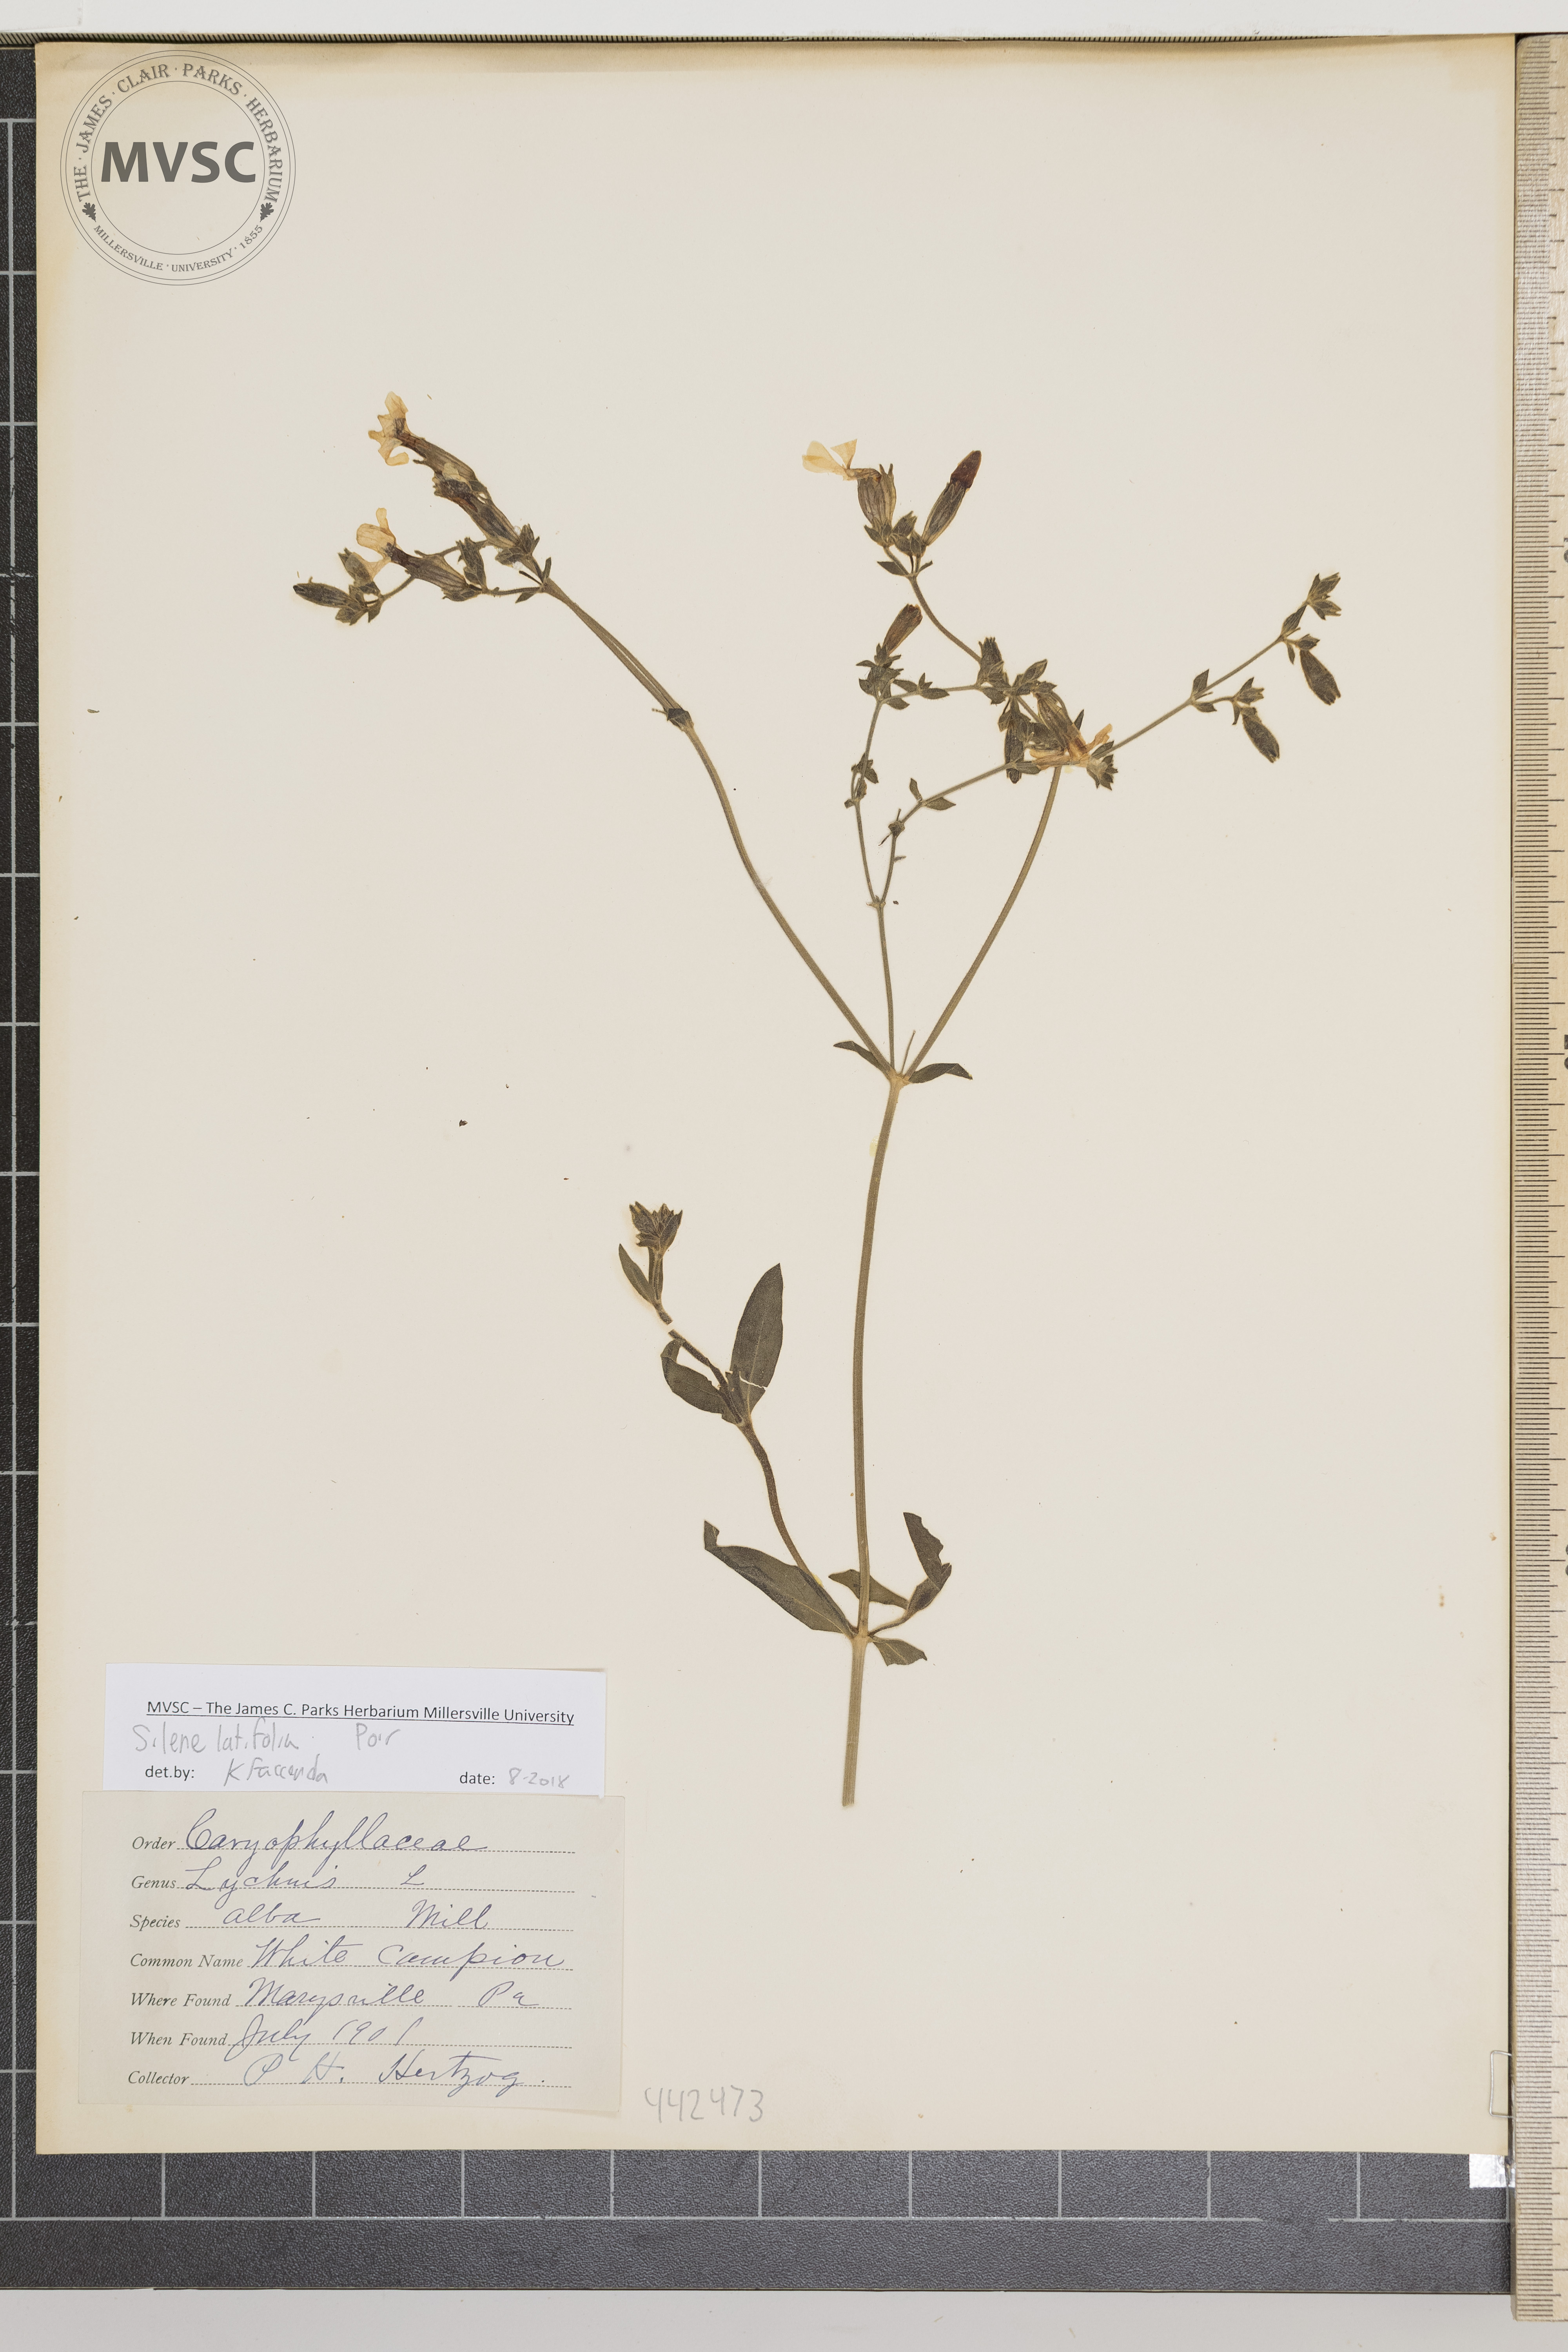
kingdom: Plantae
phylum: Tracheophyta
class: Magnoliopsida
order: Caryophyllales
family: Caryophyllaceae
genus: Silene
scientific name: Silene latifolia
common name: White Campion
